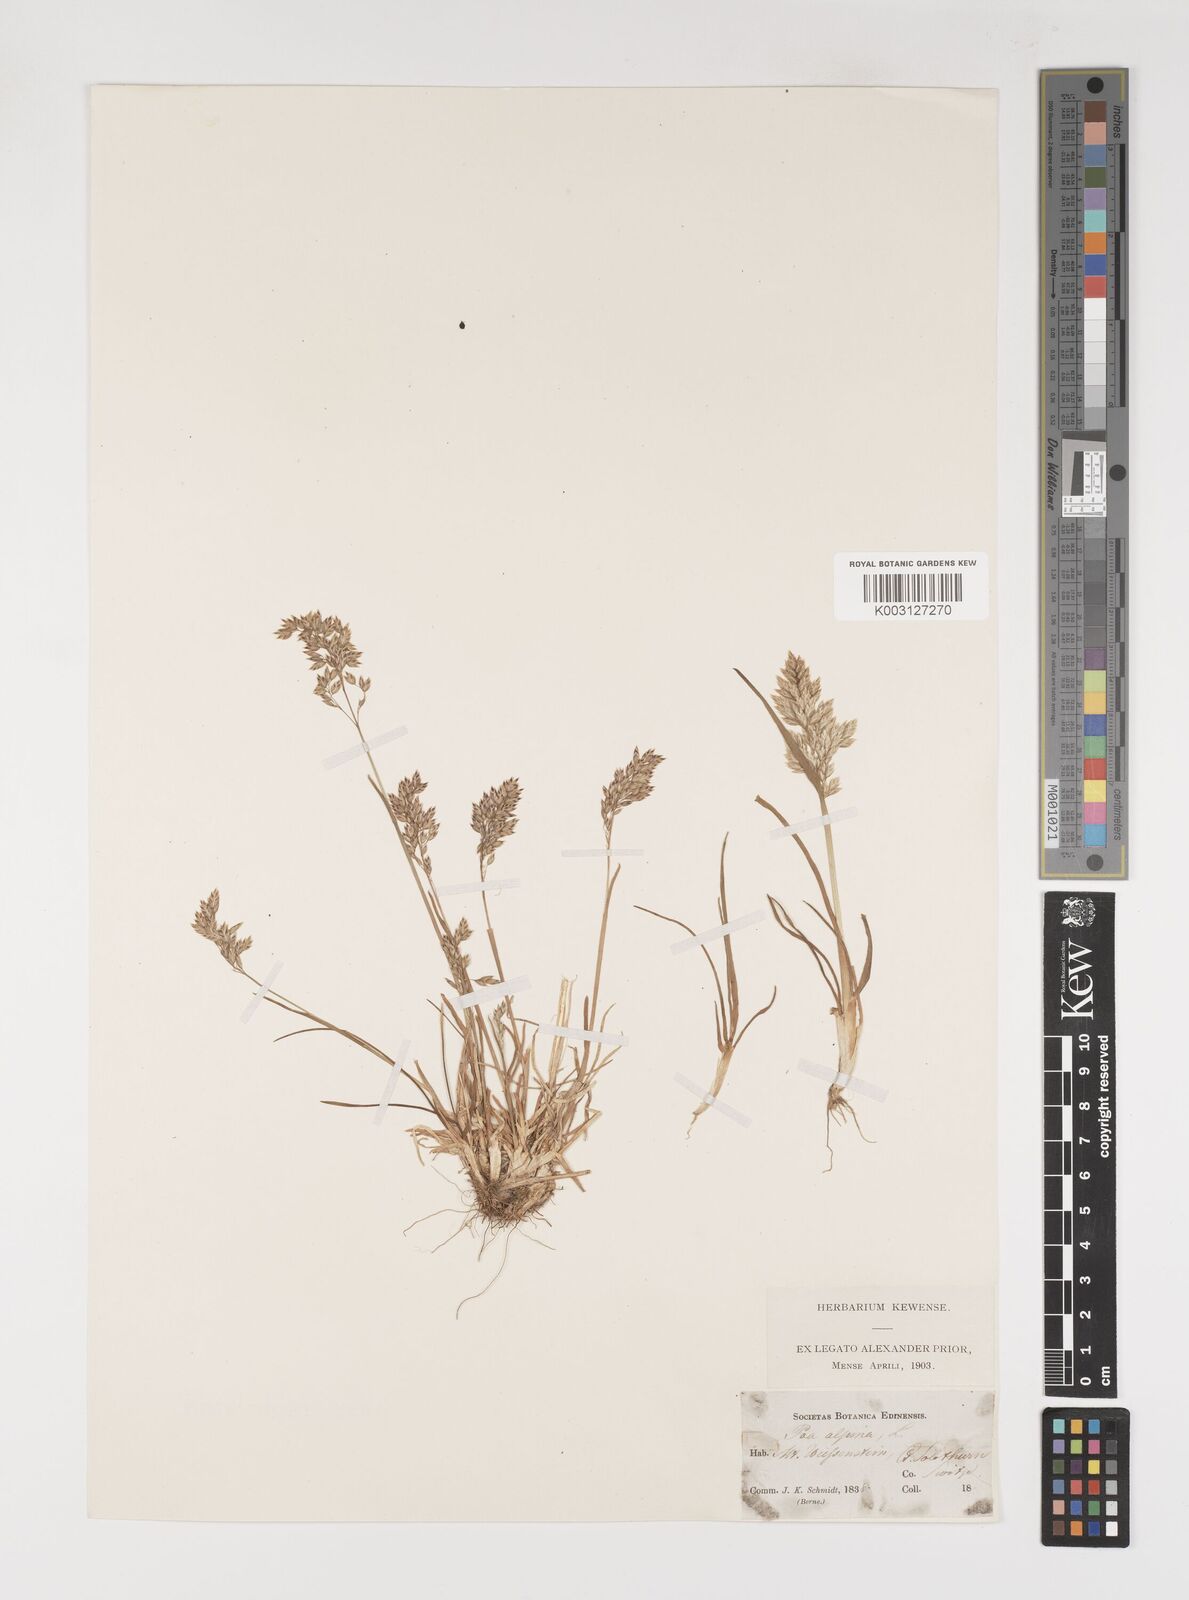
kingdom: Plantae
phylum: Tracheophyta
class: Liliopsida
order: Poales
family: Poaceae
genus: Poa
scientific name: Poa alpina
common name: Alpine bluegrass
